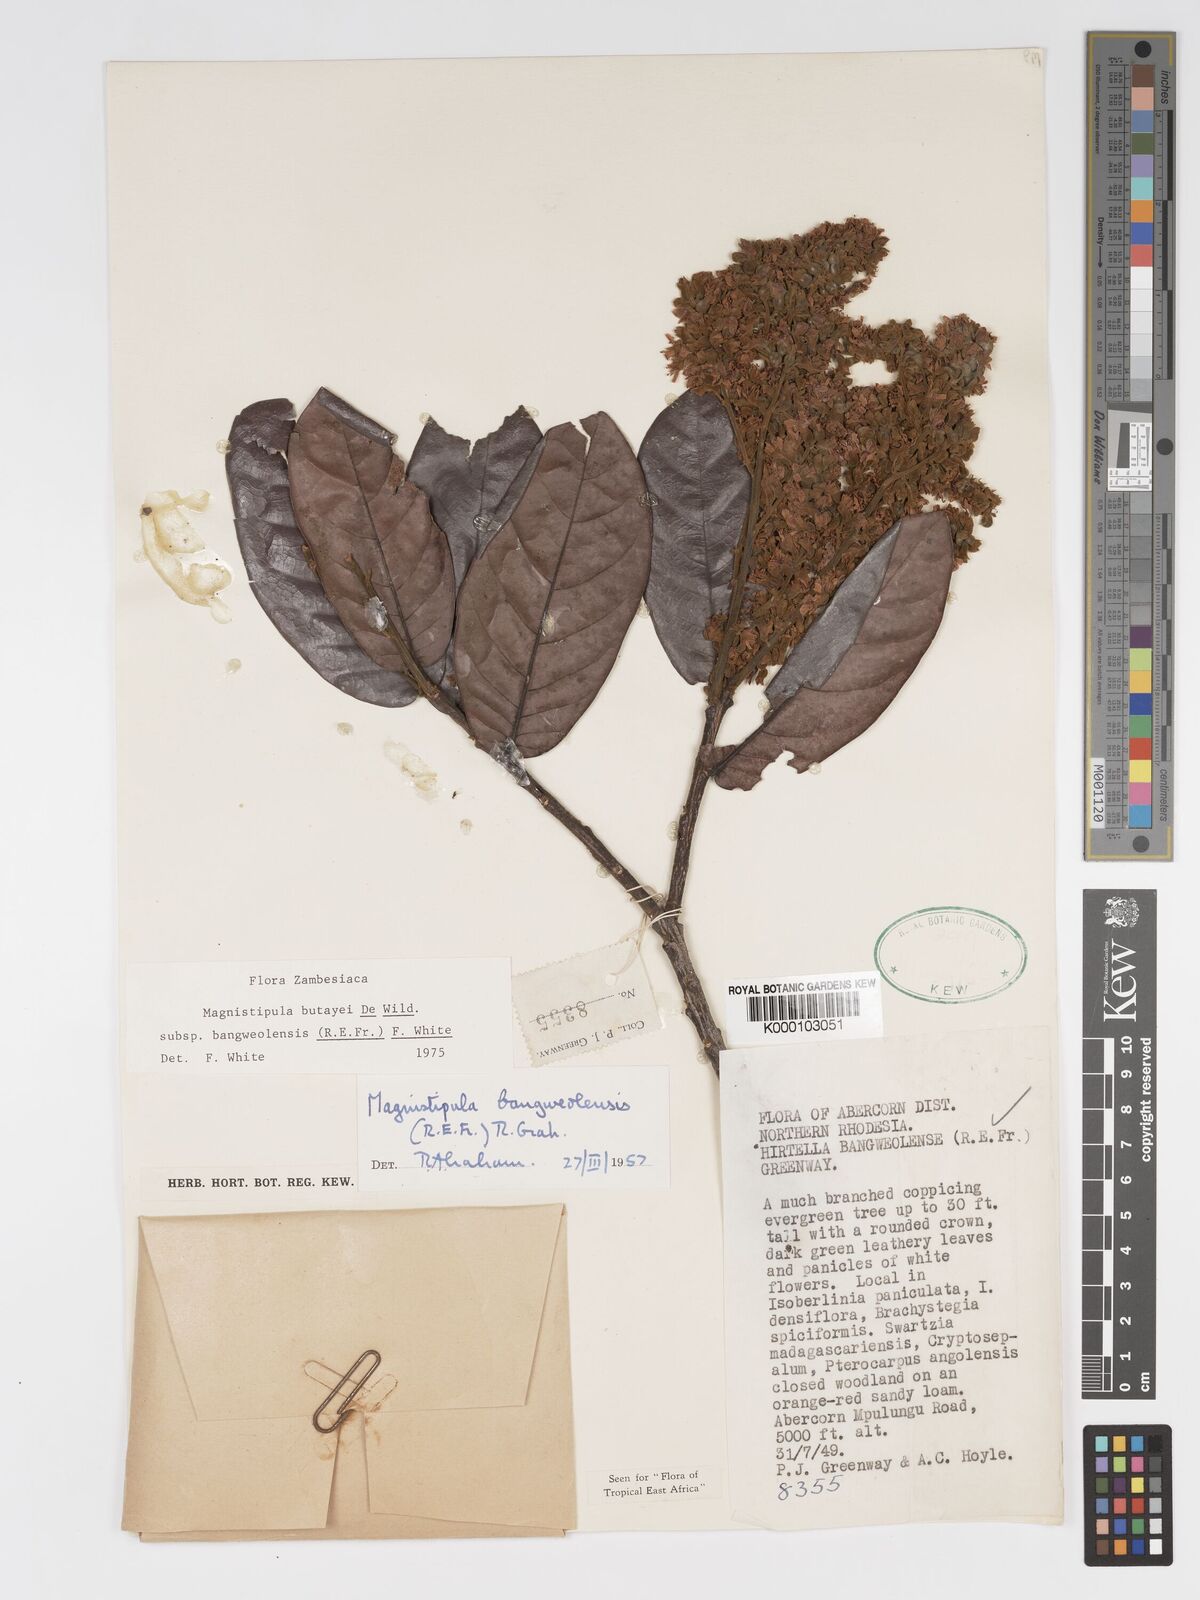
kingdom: Plantae
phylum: Tracheophyta
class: Magnoliopsida
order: Malpighiales
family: Chrysobalanaceae
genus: Magnistipula
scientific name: Magnistipula butayei
